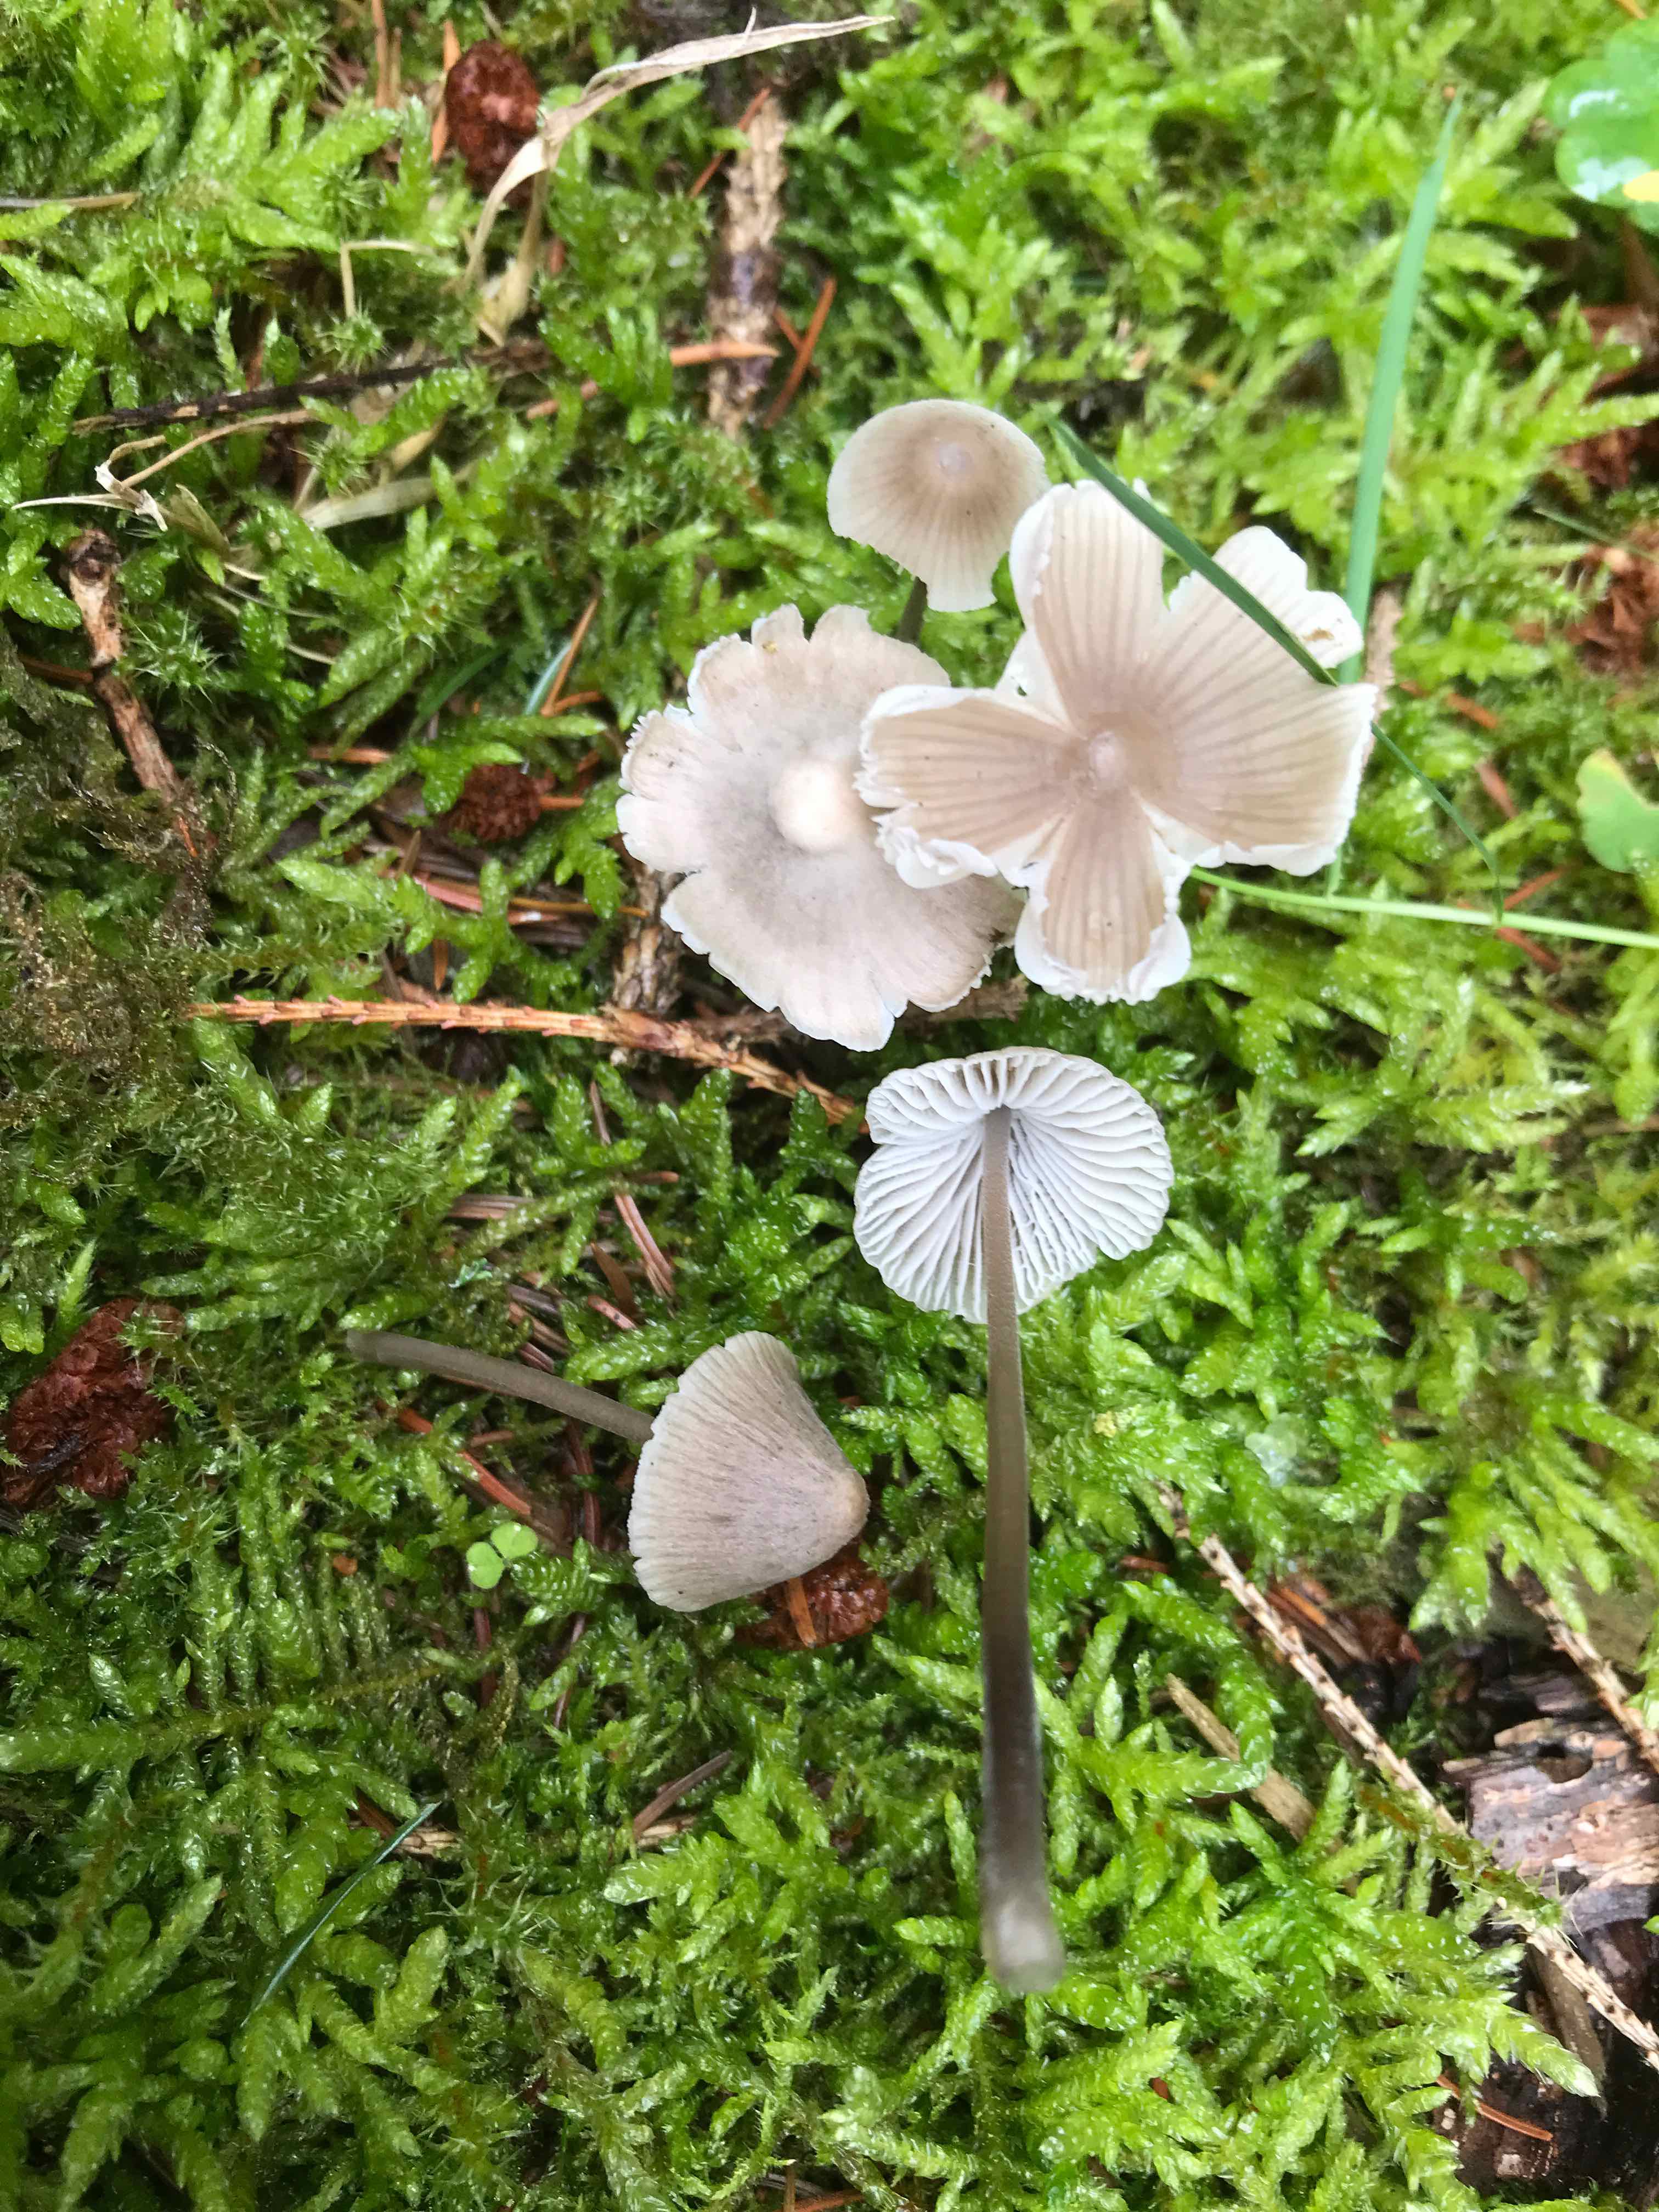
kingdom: Fungi
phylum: Basidiomycota
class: Agaricomycetes
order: Agaricales
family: Mycenaceae
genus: Mycena
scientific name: Mycena leptocephala
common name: klor-huesvamp
